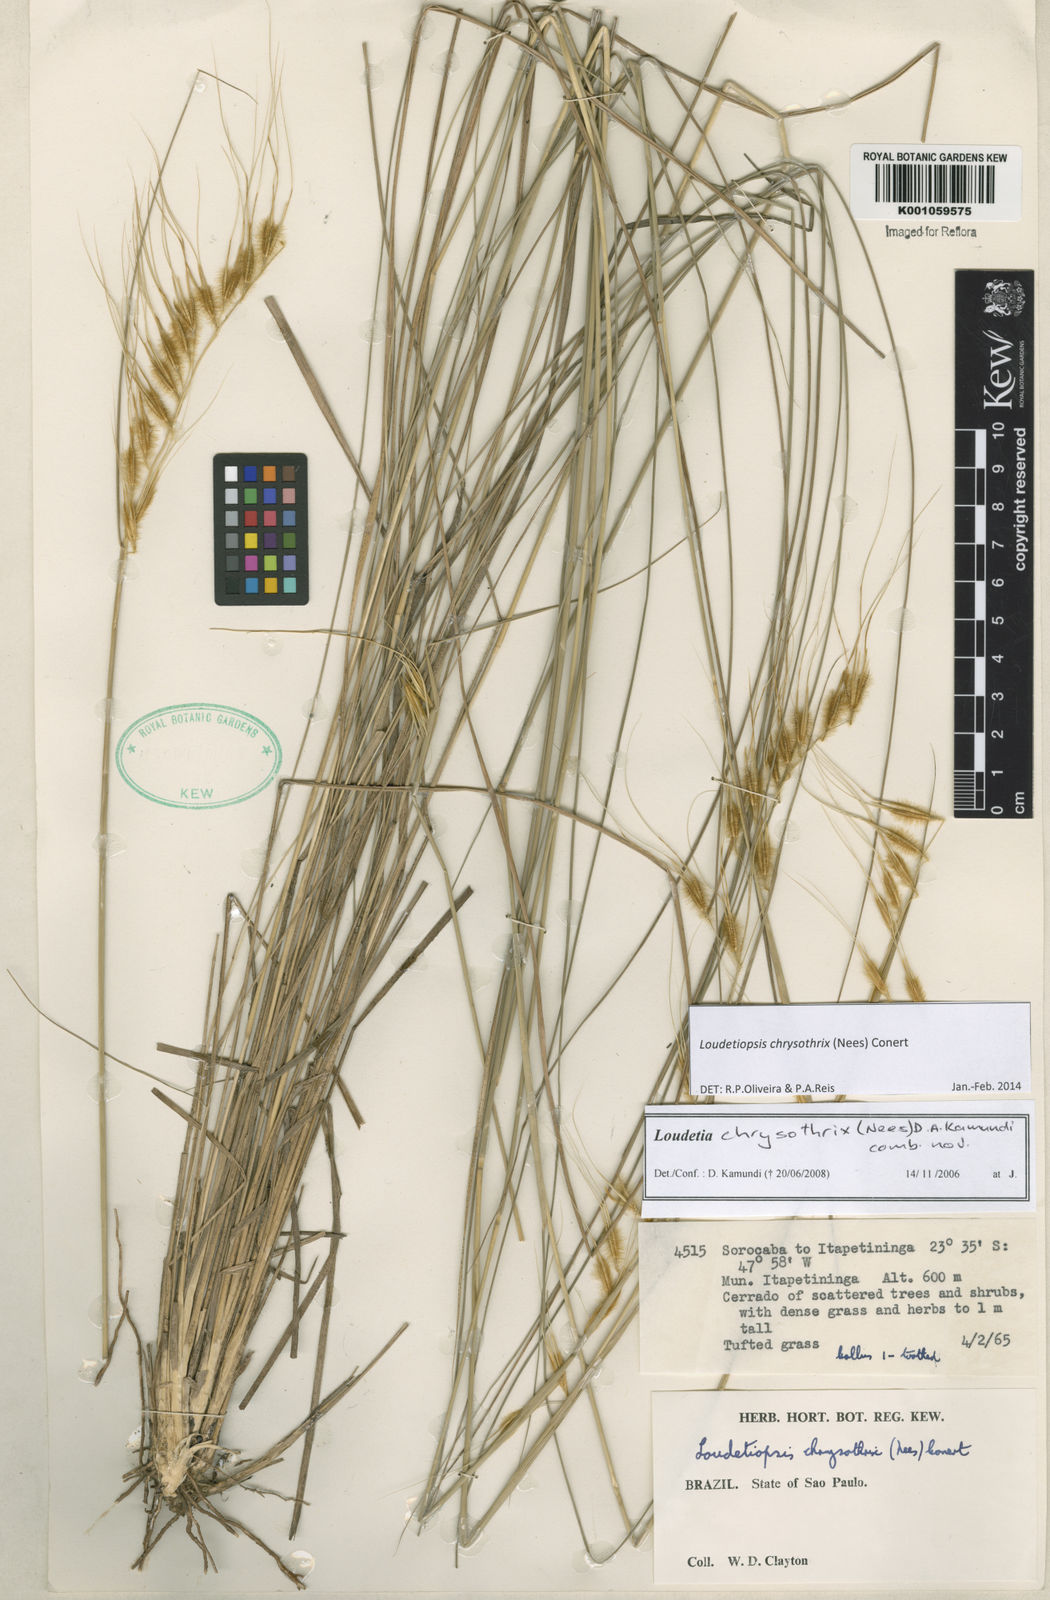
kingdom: Plantae
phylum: Tracheophyta
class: Liliopsida
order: Poales
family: Poaceae
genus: Loudetiopsis
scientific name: Loudetiopsis chrysothrix
